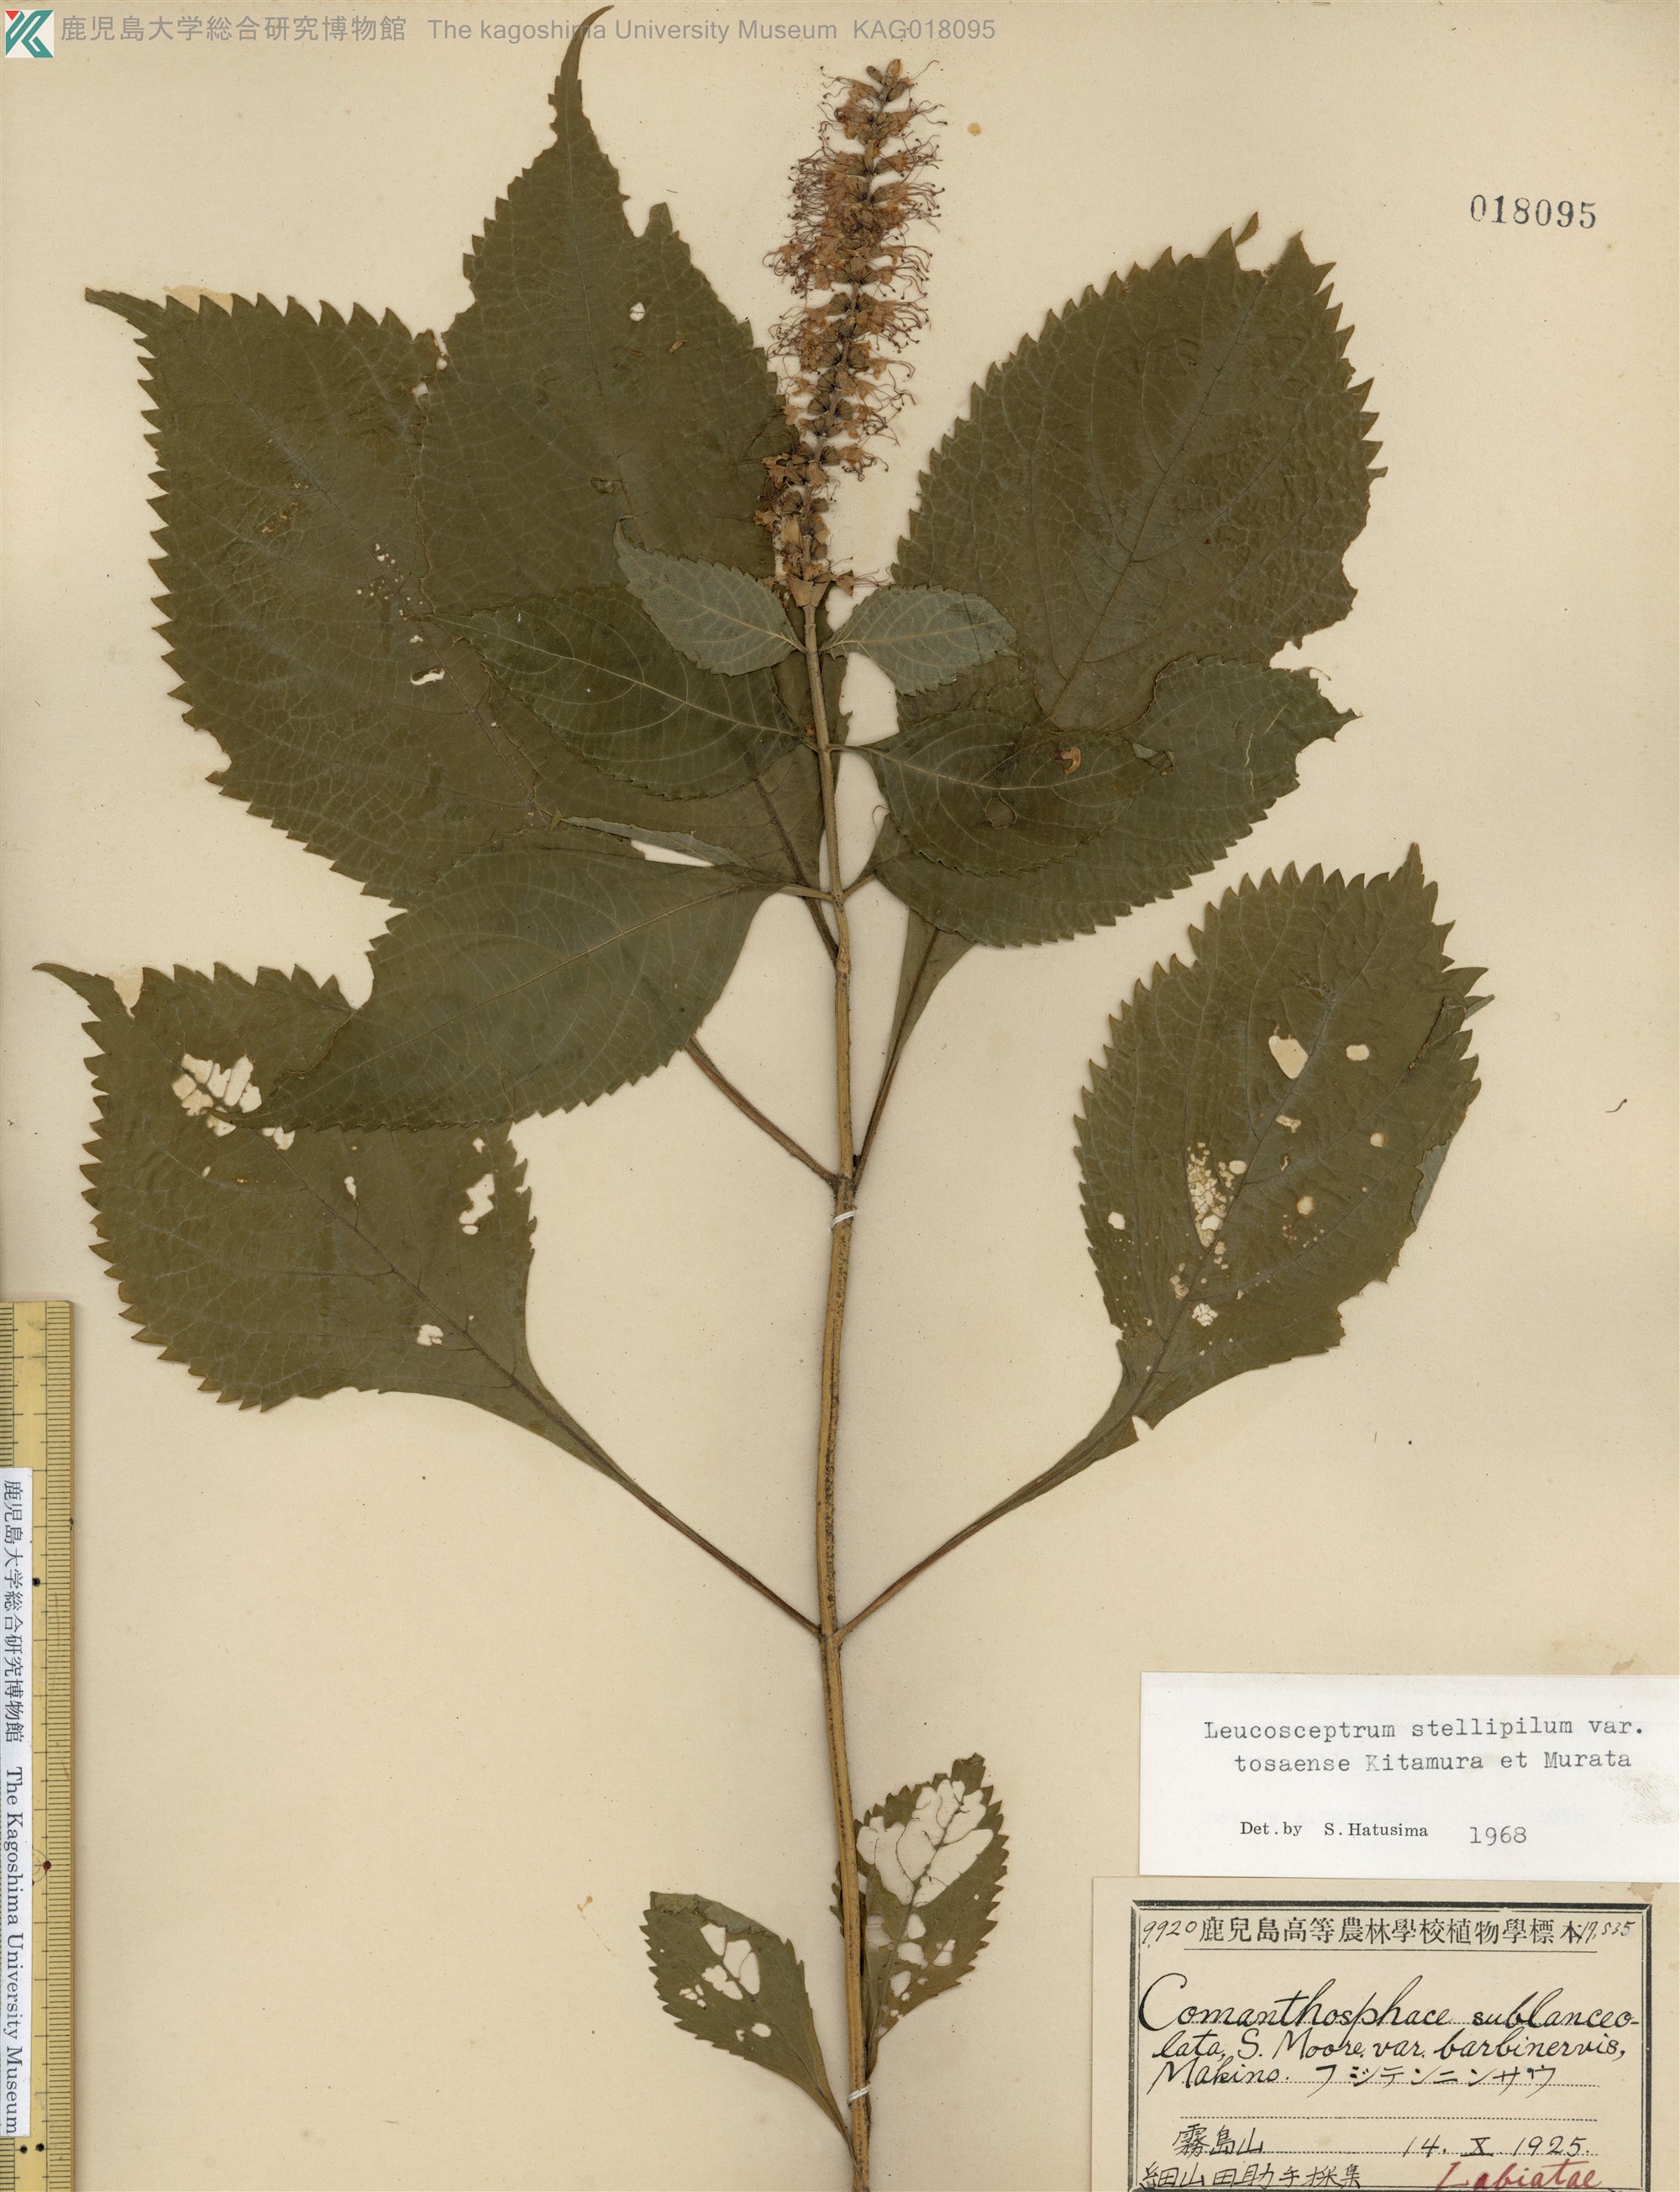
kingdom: Plantae
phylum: Tracheophyta
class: Magnoliopsida
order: Lamiales
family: Lamiaceae
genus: Comanthosphace
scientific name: Comanthosphace japonica
